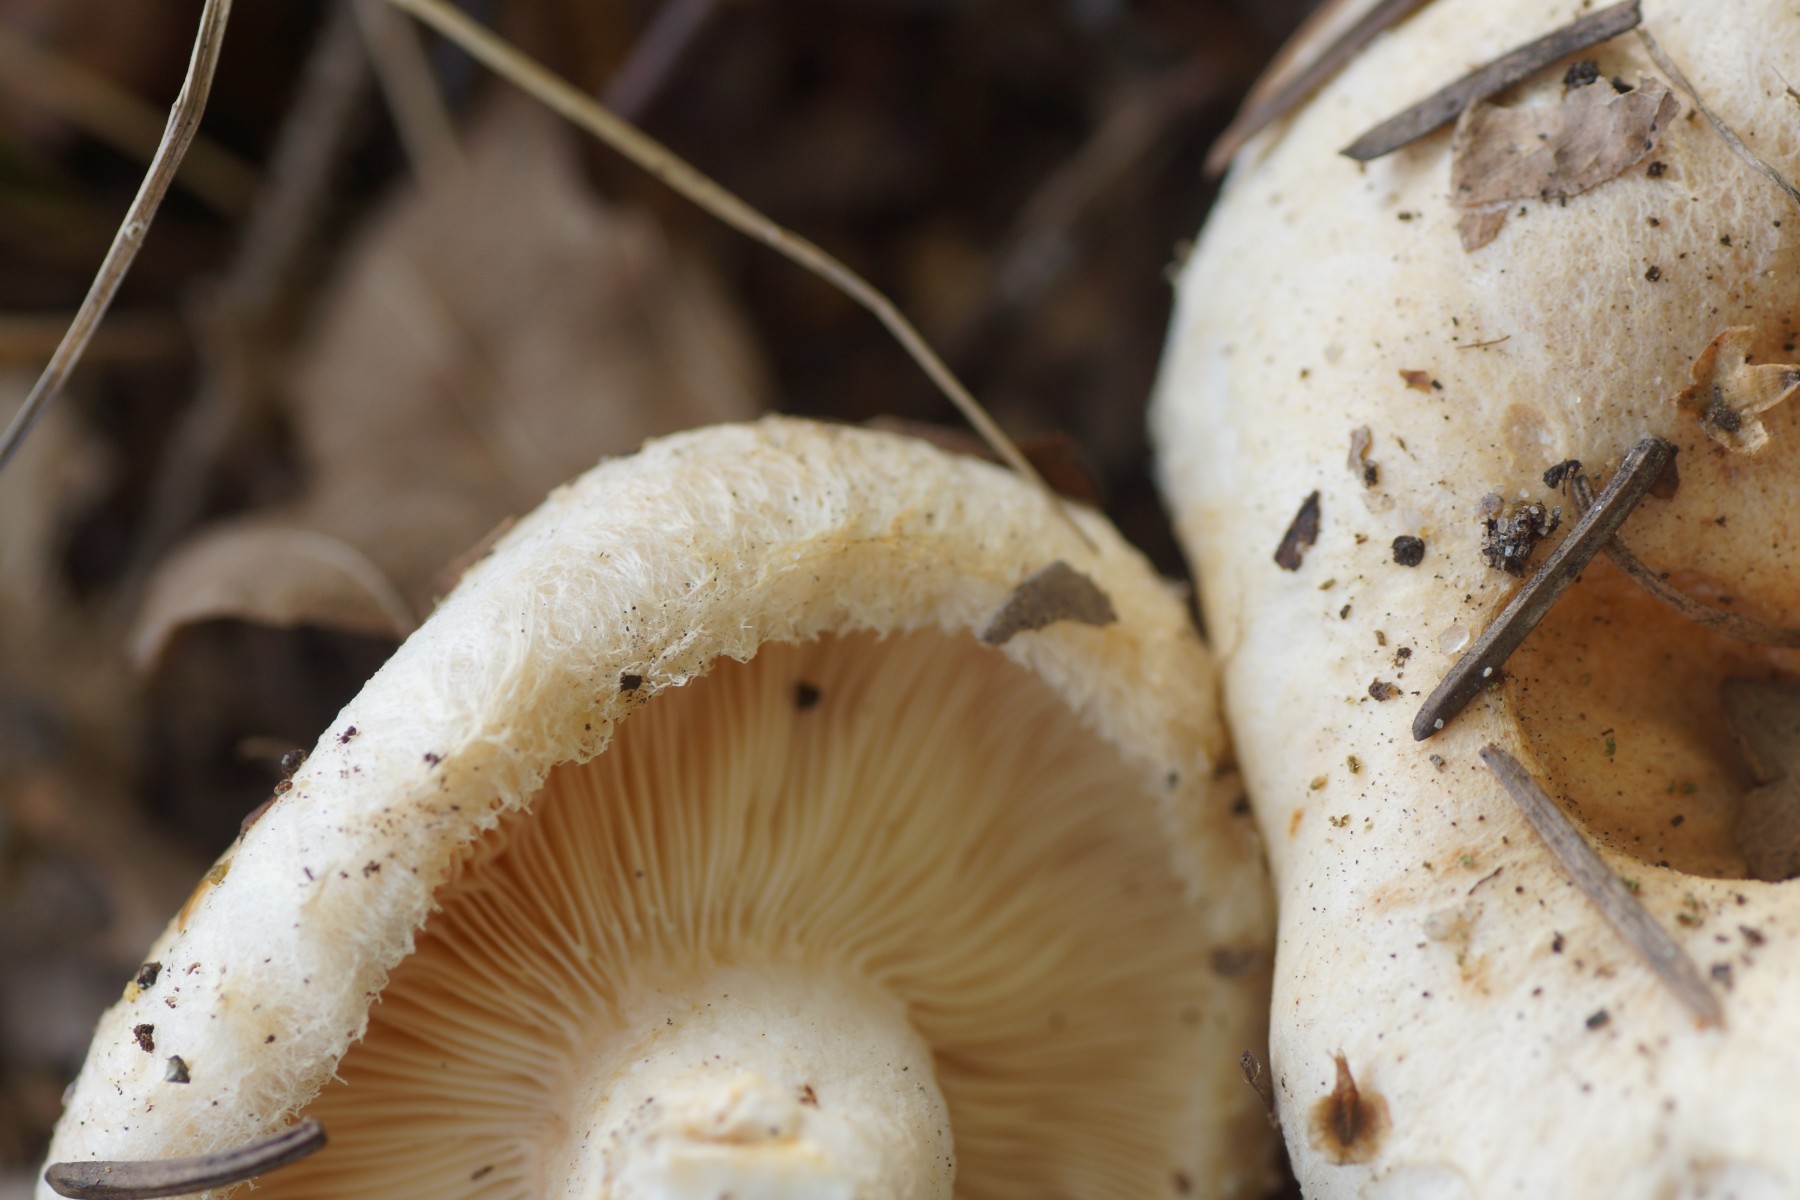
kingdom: Fungi
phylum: Basidiomycota
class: Agaricomycetes
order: Russulales
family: Russulaceae
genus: Lactarius
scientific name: Lactarius pubescens
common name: dunet mælkehat
